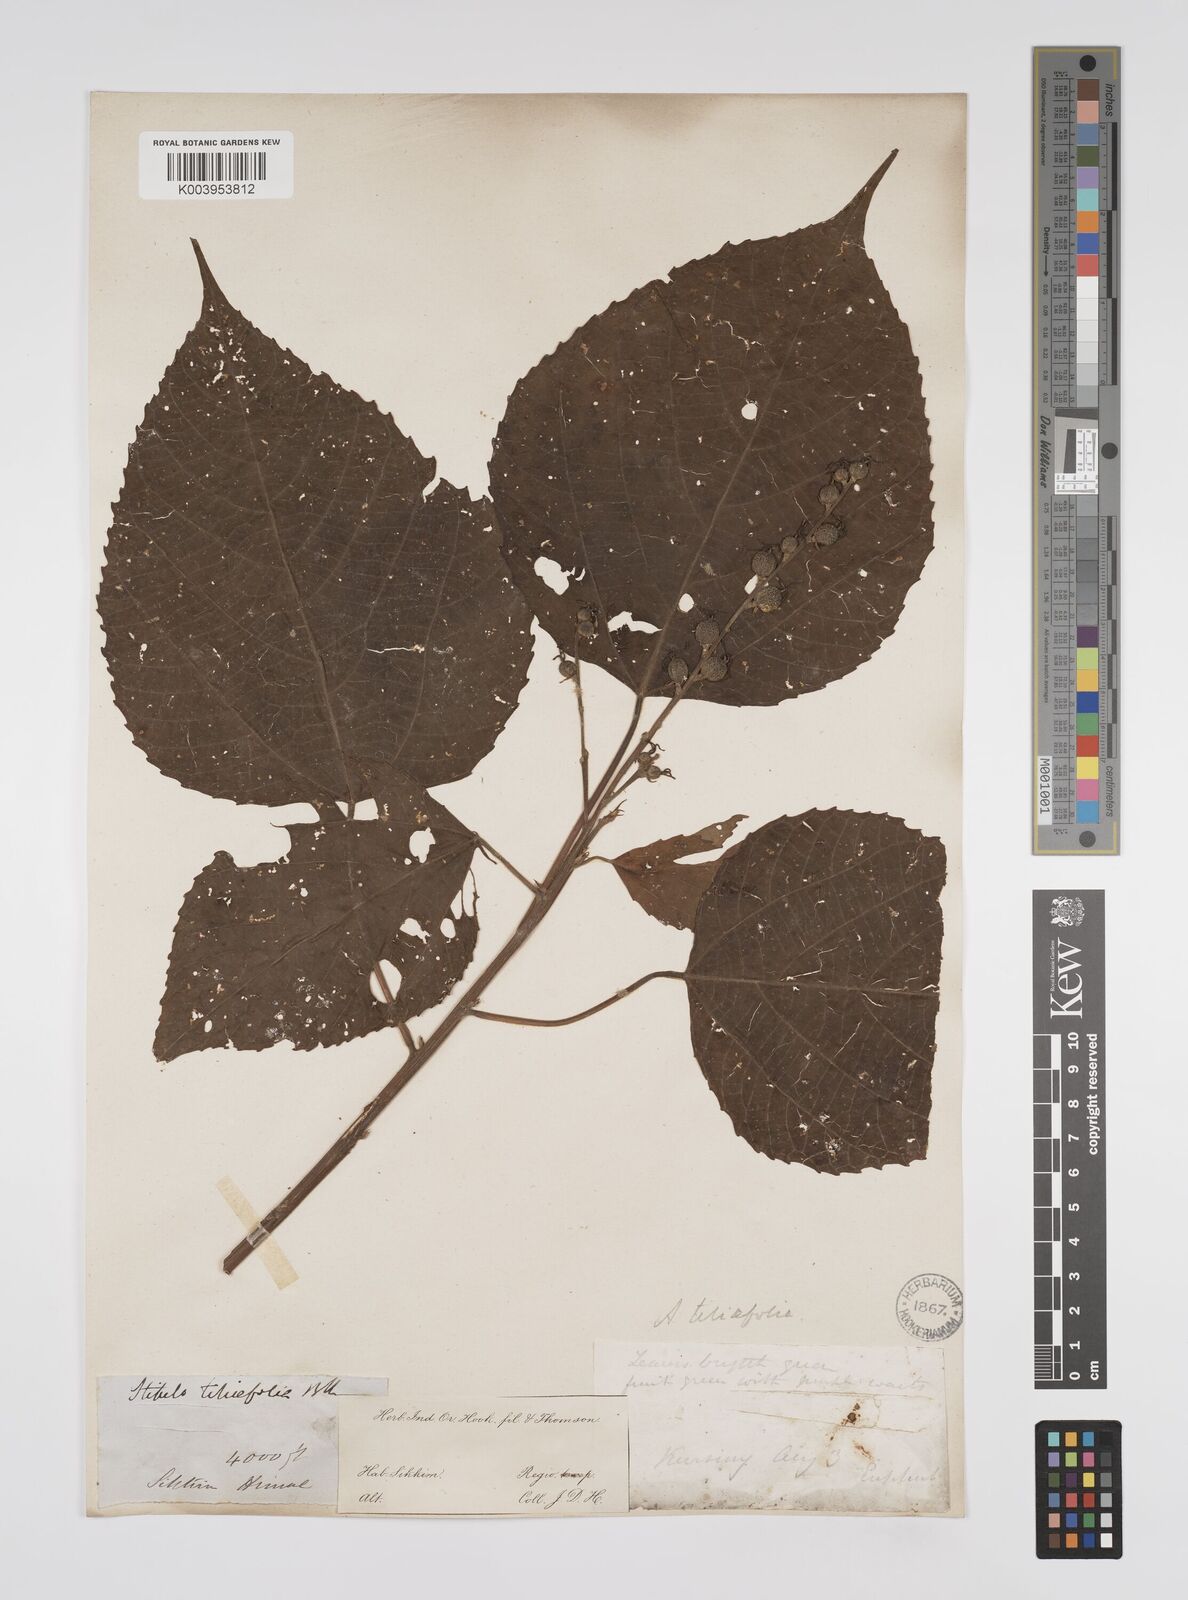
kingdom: Plantae
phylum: Tracheophyta
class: Magnoliopsida
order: Malpighiales
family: Euphorbiaceae
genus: Alchornea
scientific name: Alchornea tiliifolia
